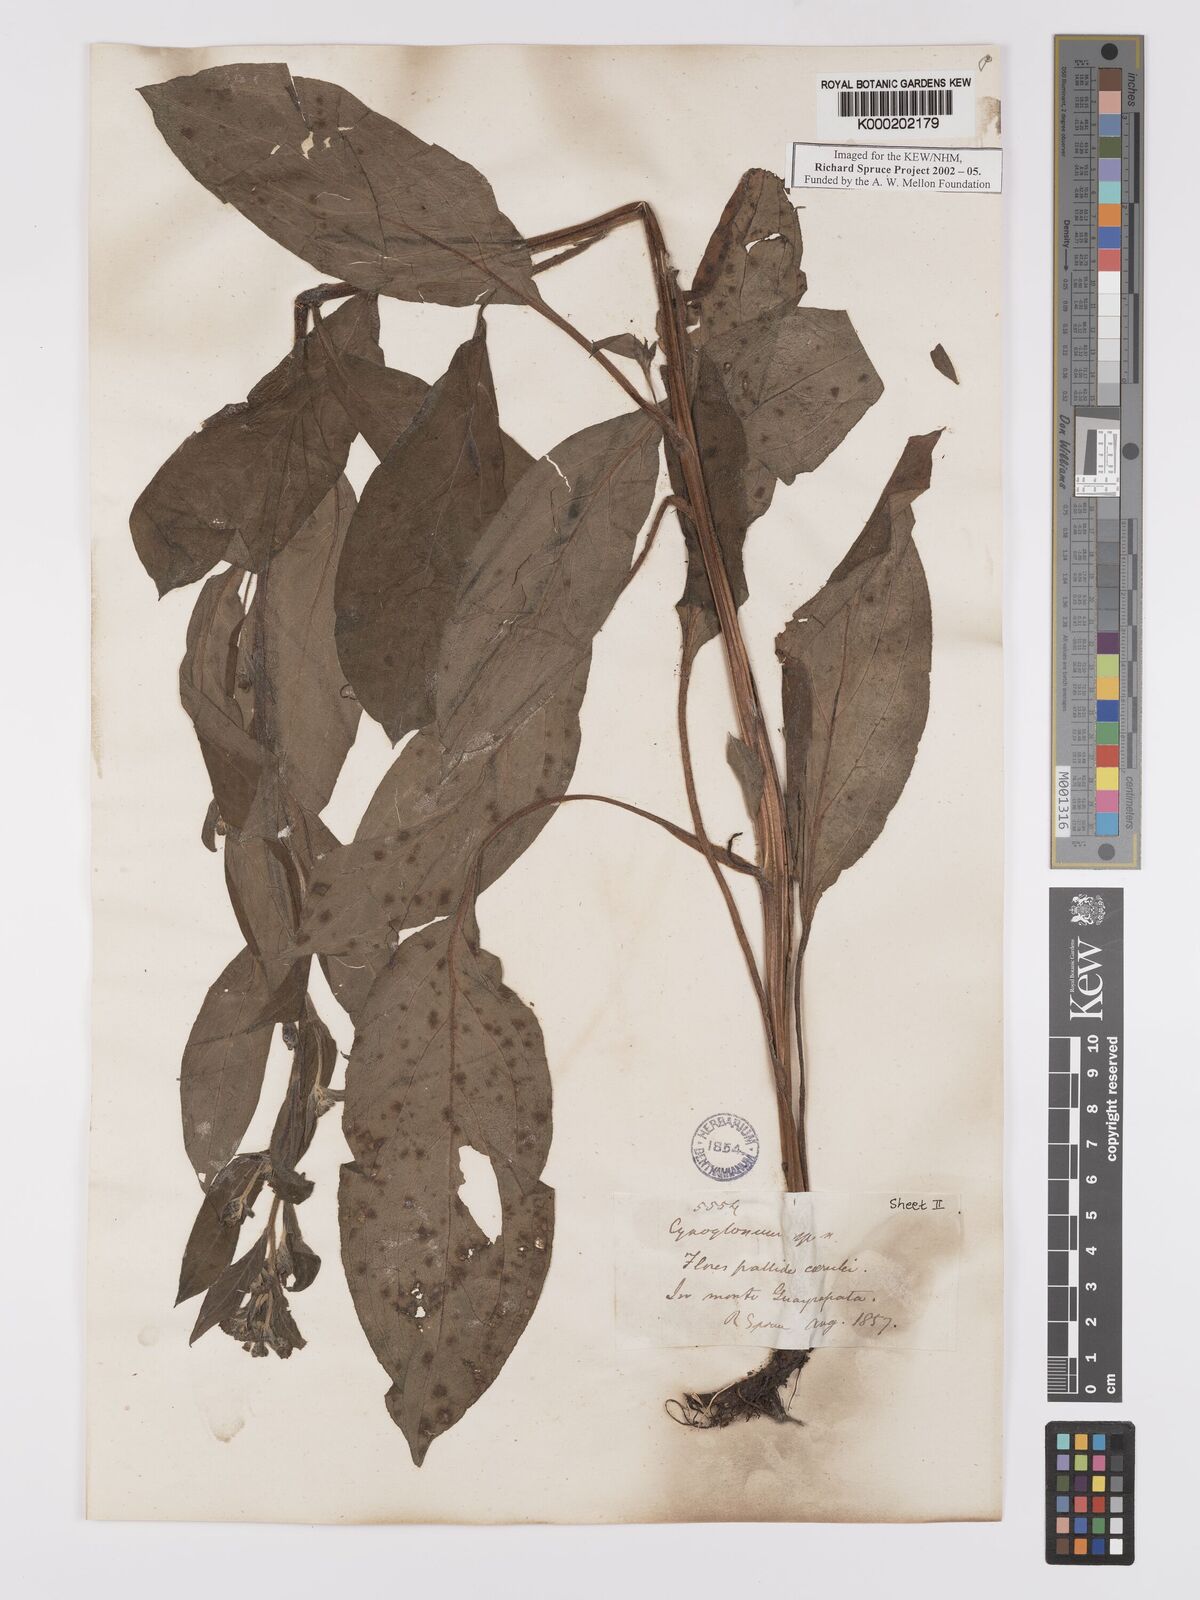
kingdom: Plantae
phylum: Tracheophyta
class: Magnoliopsida
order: Boraginales
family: Boraginaceae
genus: Hackelia
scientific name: Hackelia revoluta
